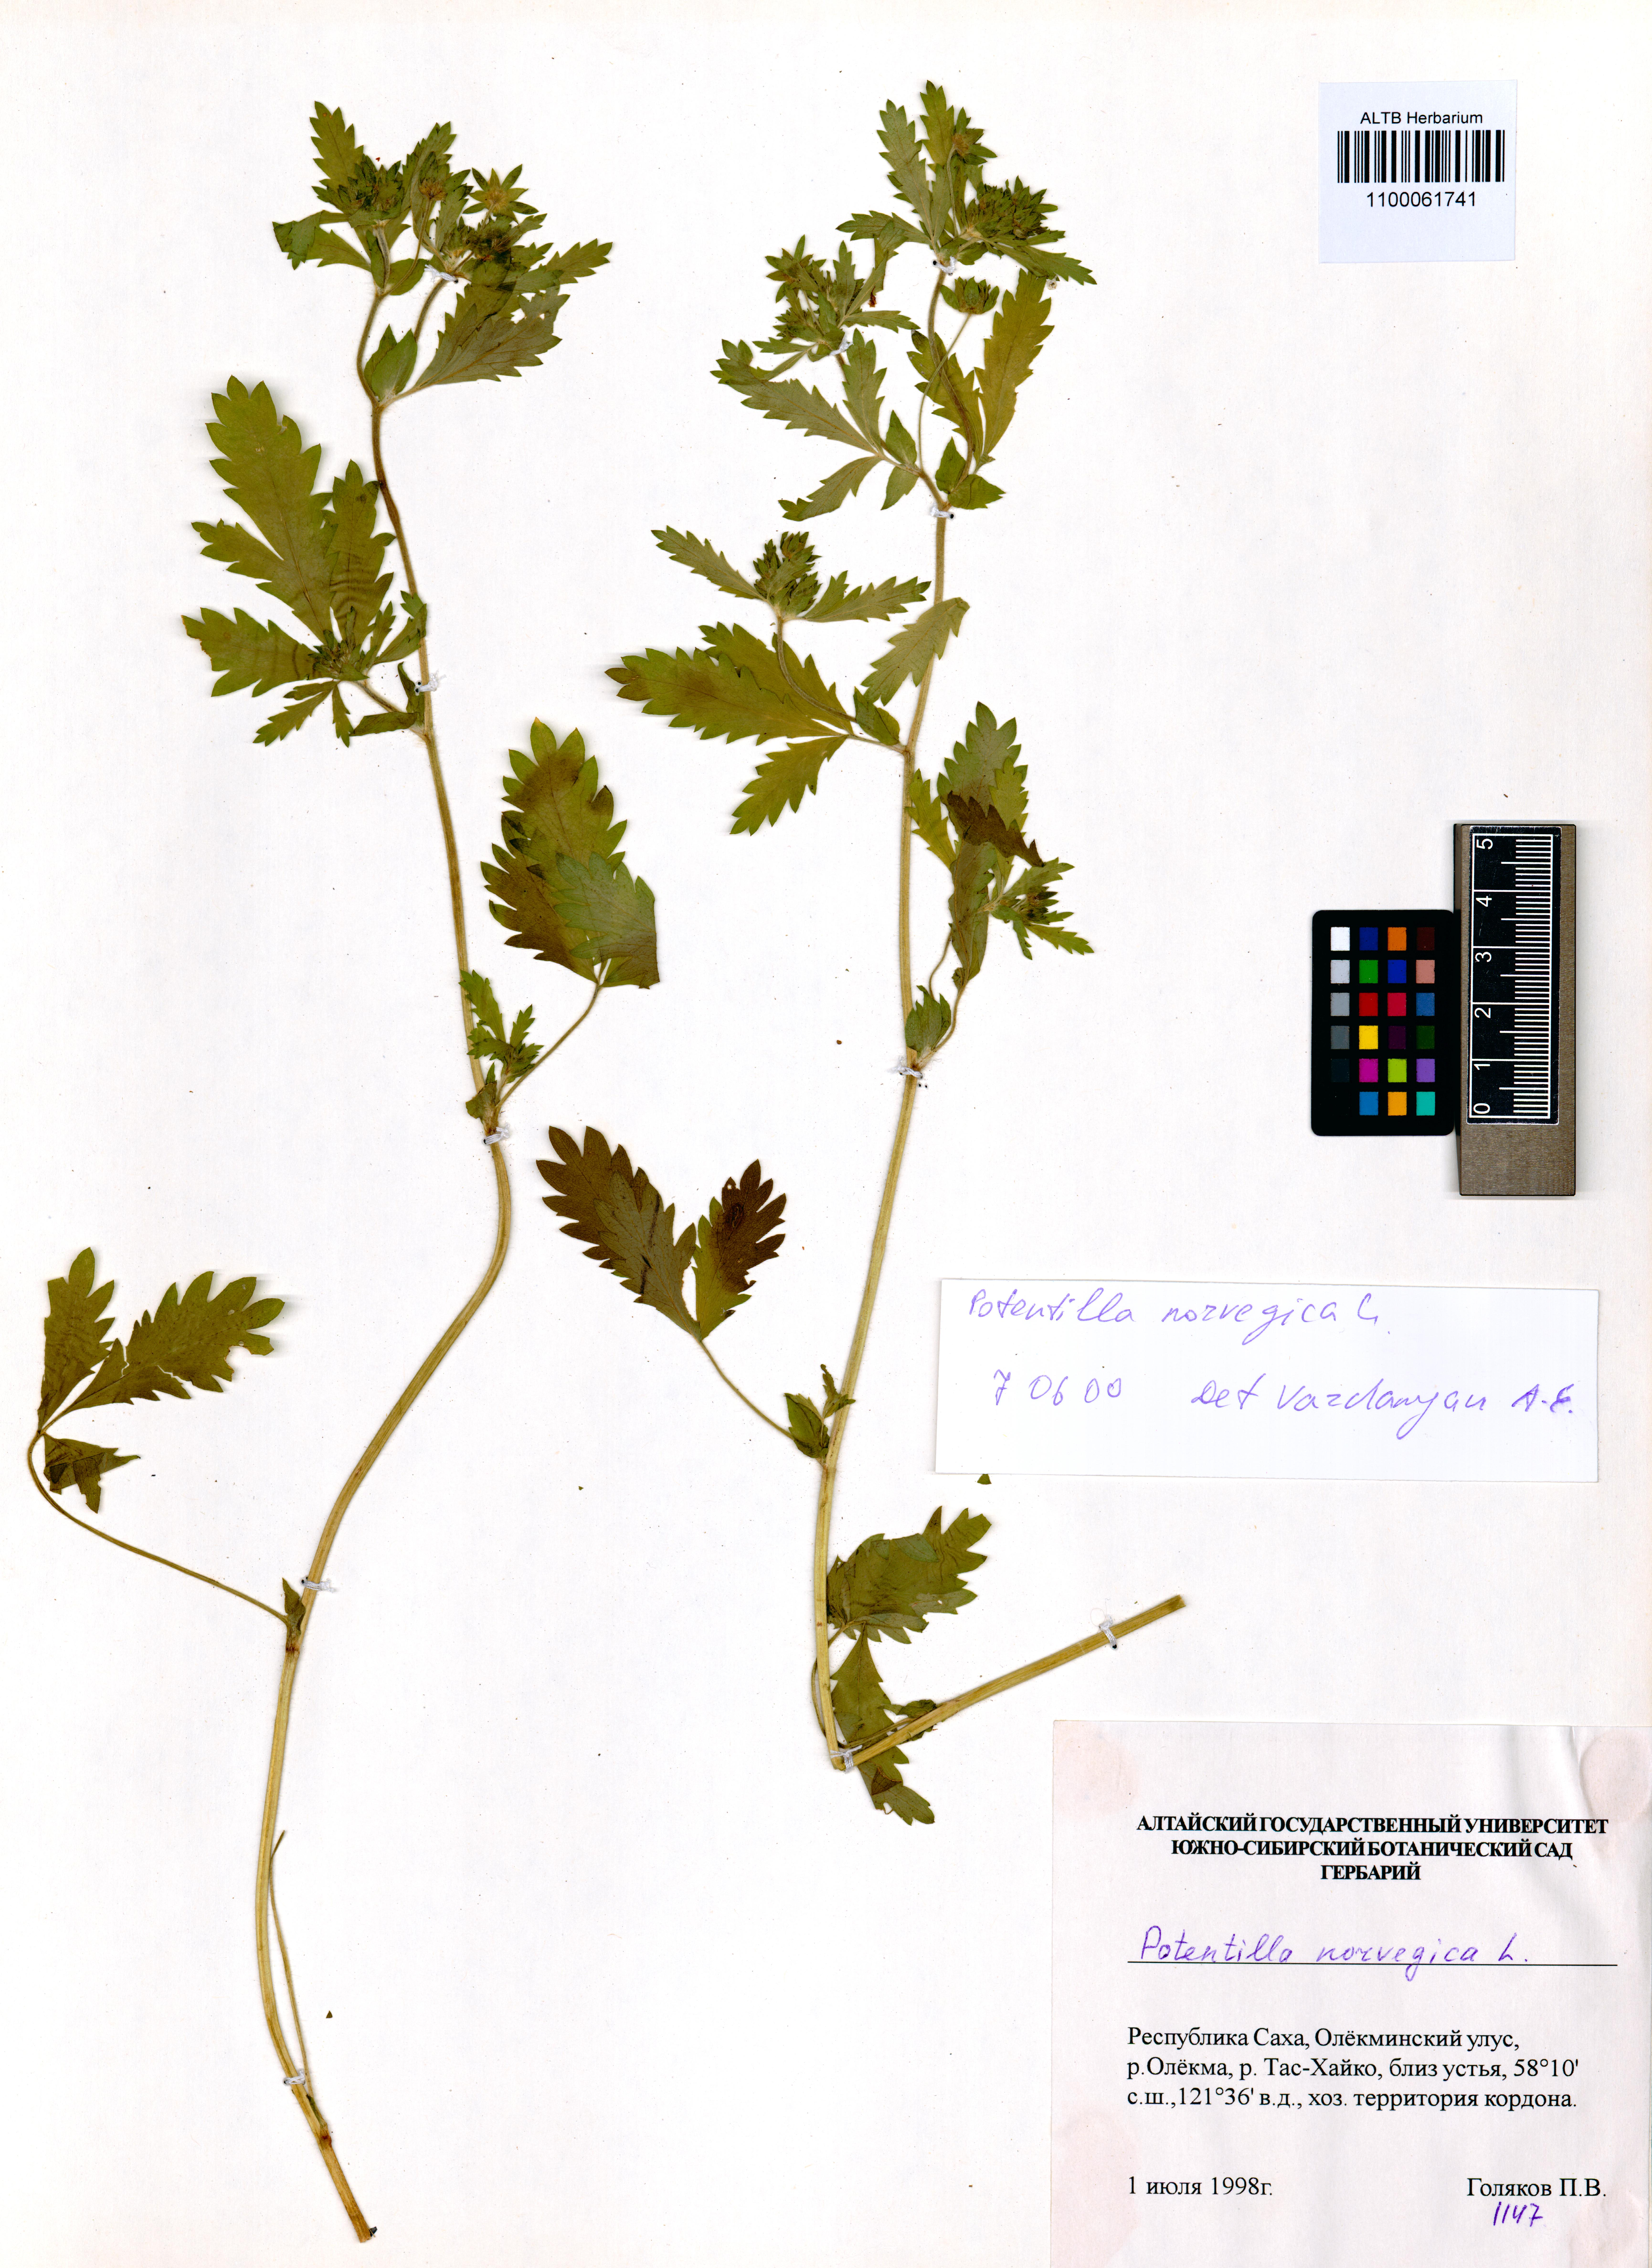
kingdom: Plantae
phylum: Tracheophyta
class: Magnoliopsida
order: Rosales
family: Rosaceae
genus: Potentilla
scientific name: Potentilla norvegica
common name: Ternate-leaved cinquefoil
